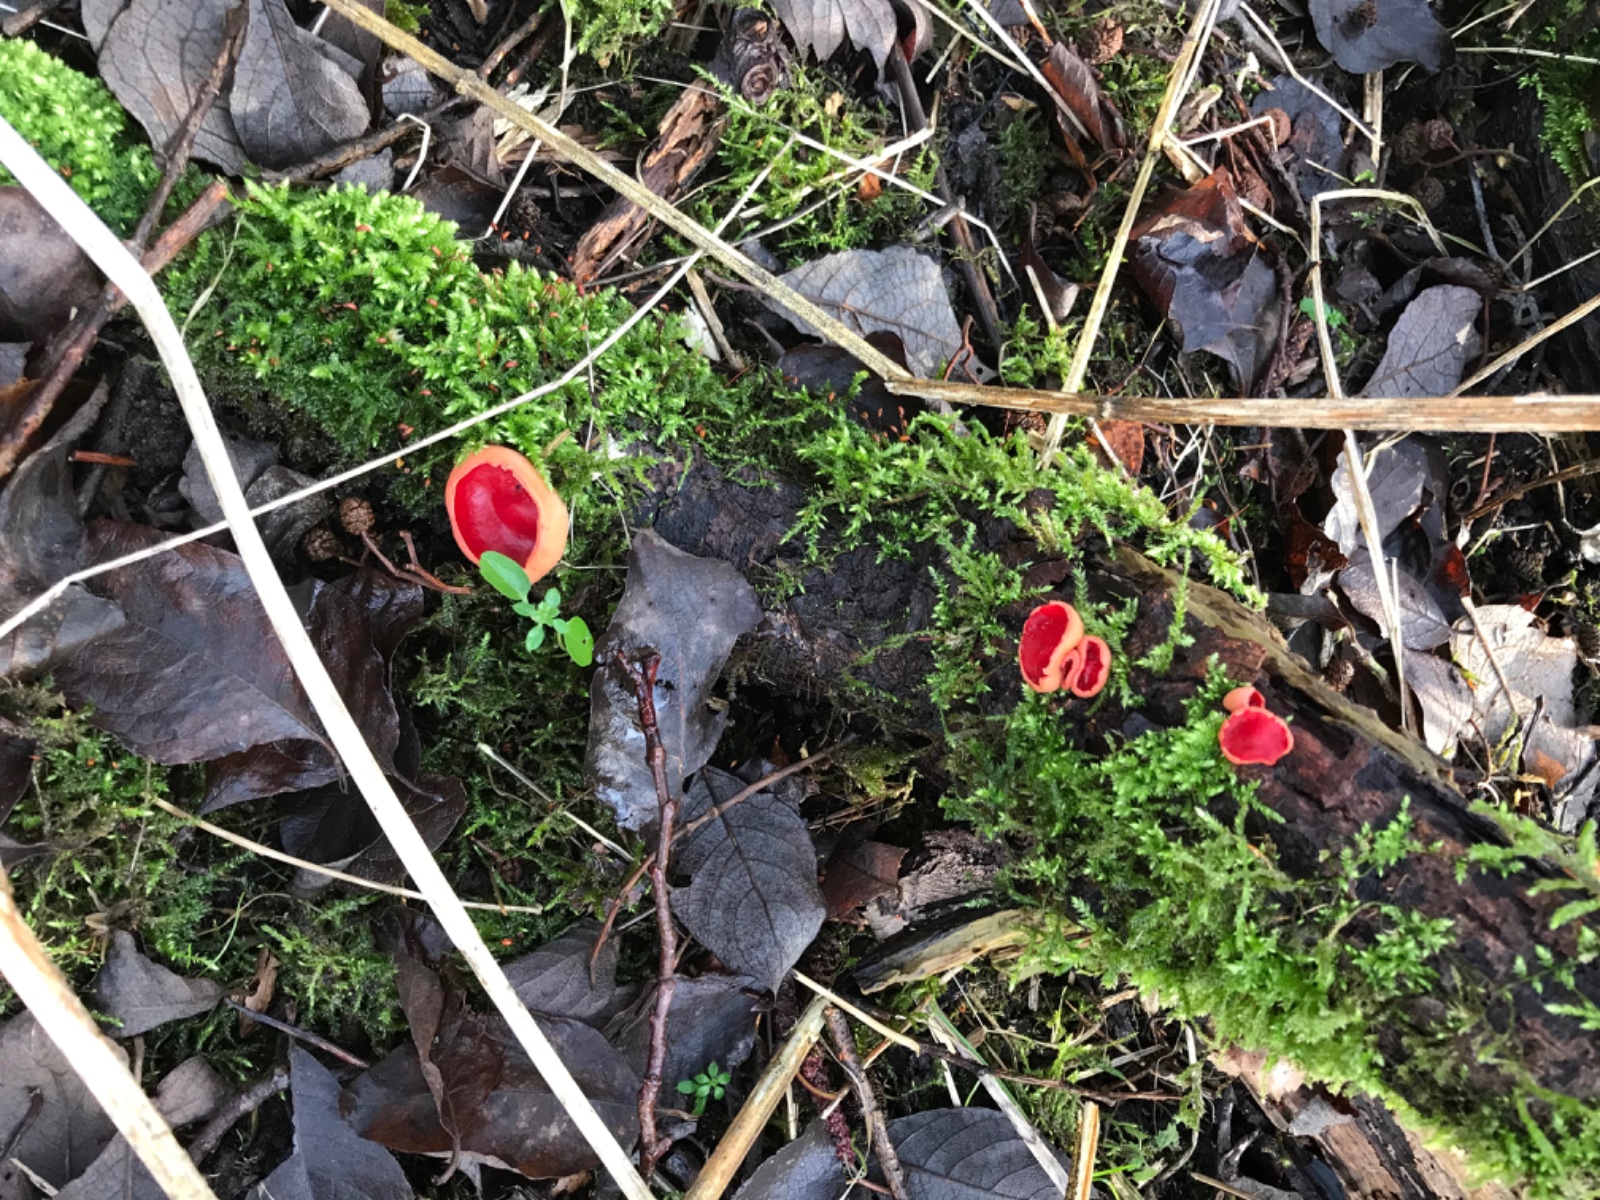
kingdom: Fungi
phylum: Ascomycota
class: Pezizomycetes
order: Pezizales
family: Sarcoscyphaceae
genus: Sarcoscypha
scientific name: Sarcoscypha austriaca
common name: krølhåret pragtbæger
